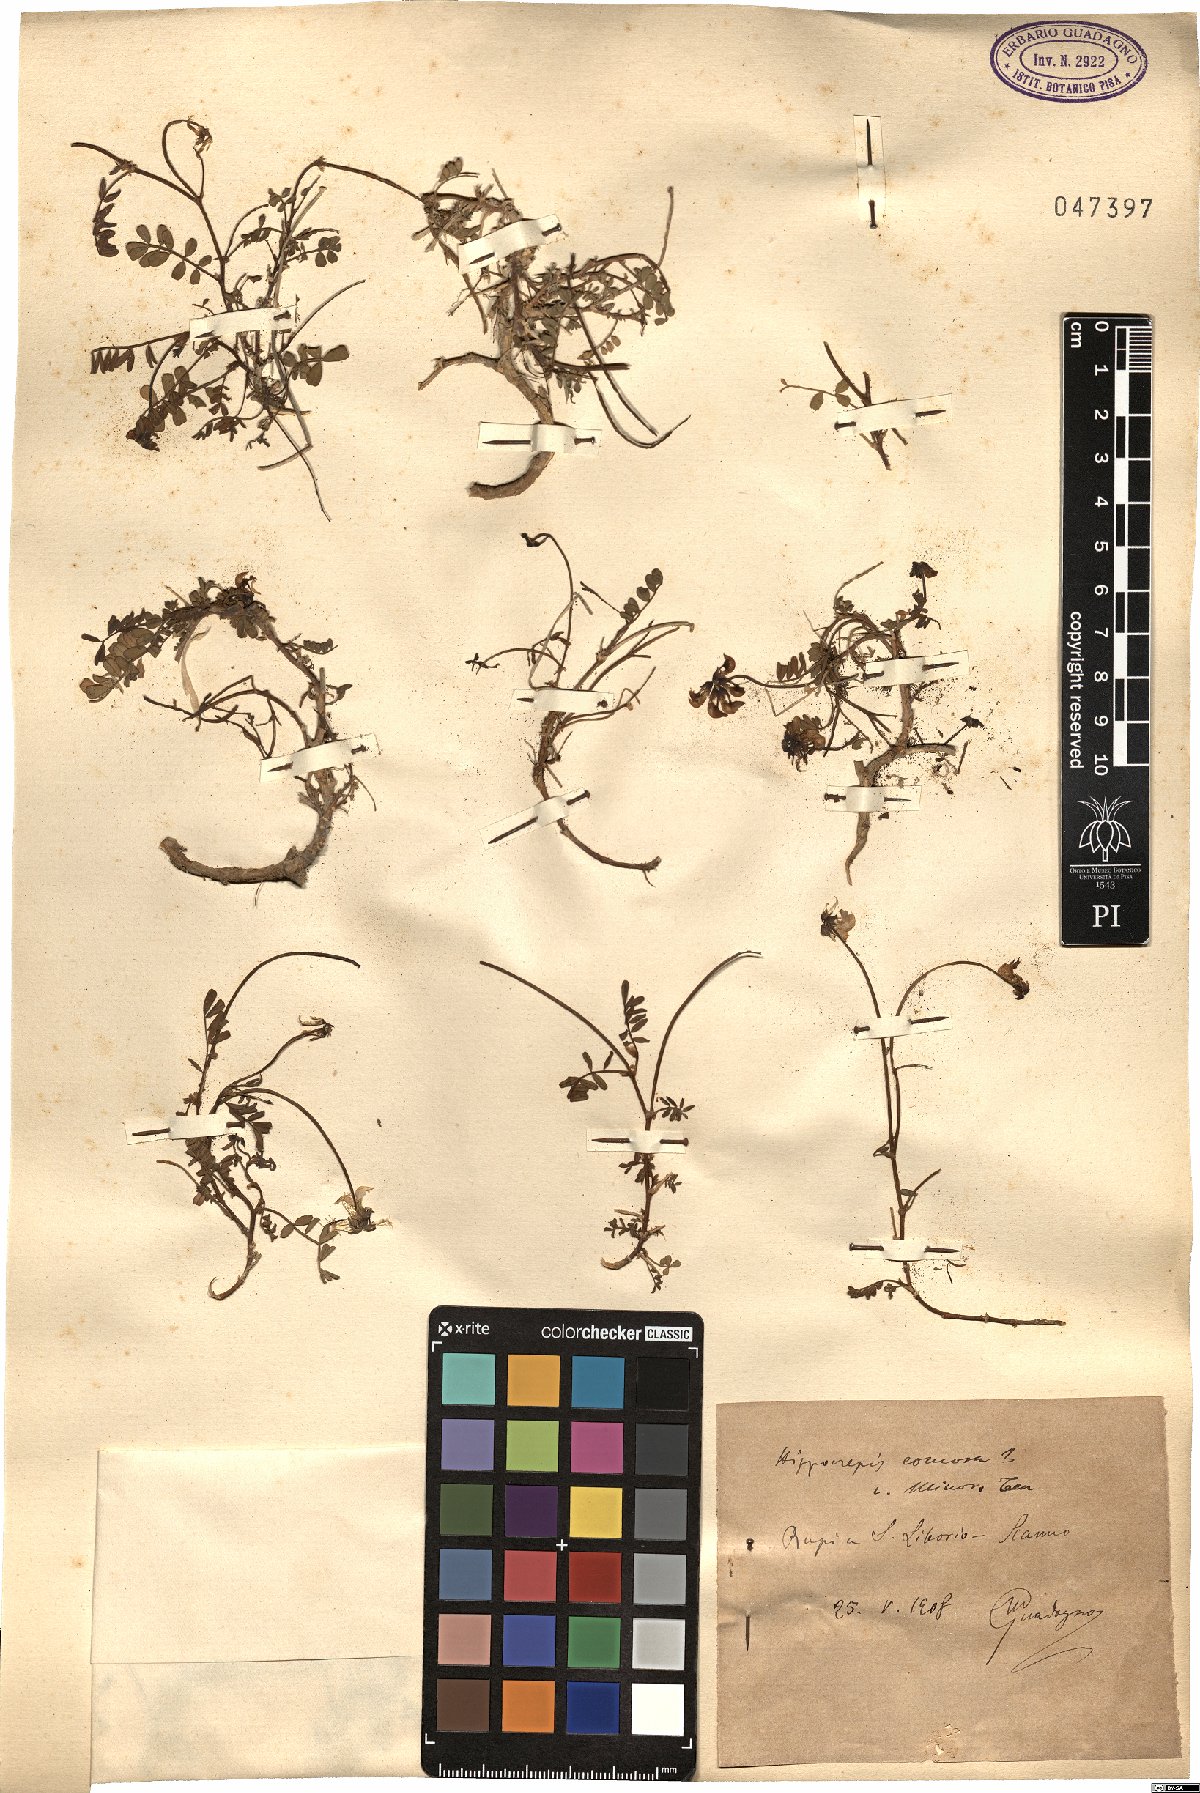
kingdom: Plantae
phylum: Tracheophyta
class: Magnoliopsida
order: Fabales
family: Fabaceae
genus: Hippocrepis
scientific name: Hippocrepis comosa
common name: Horseshoe vetch
